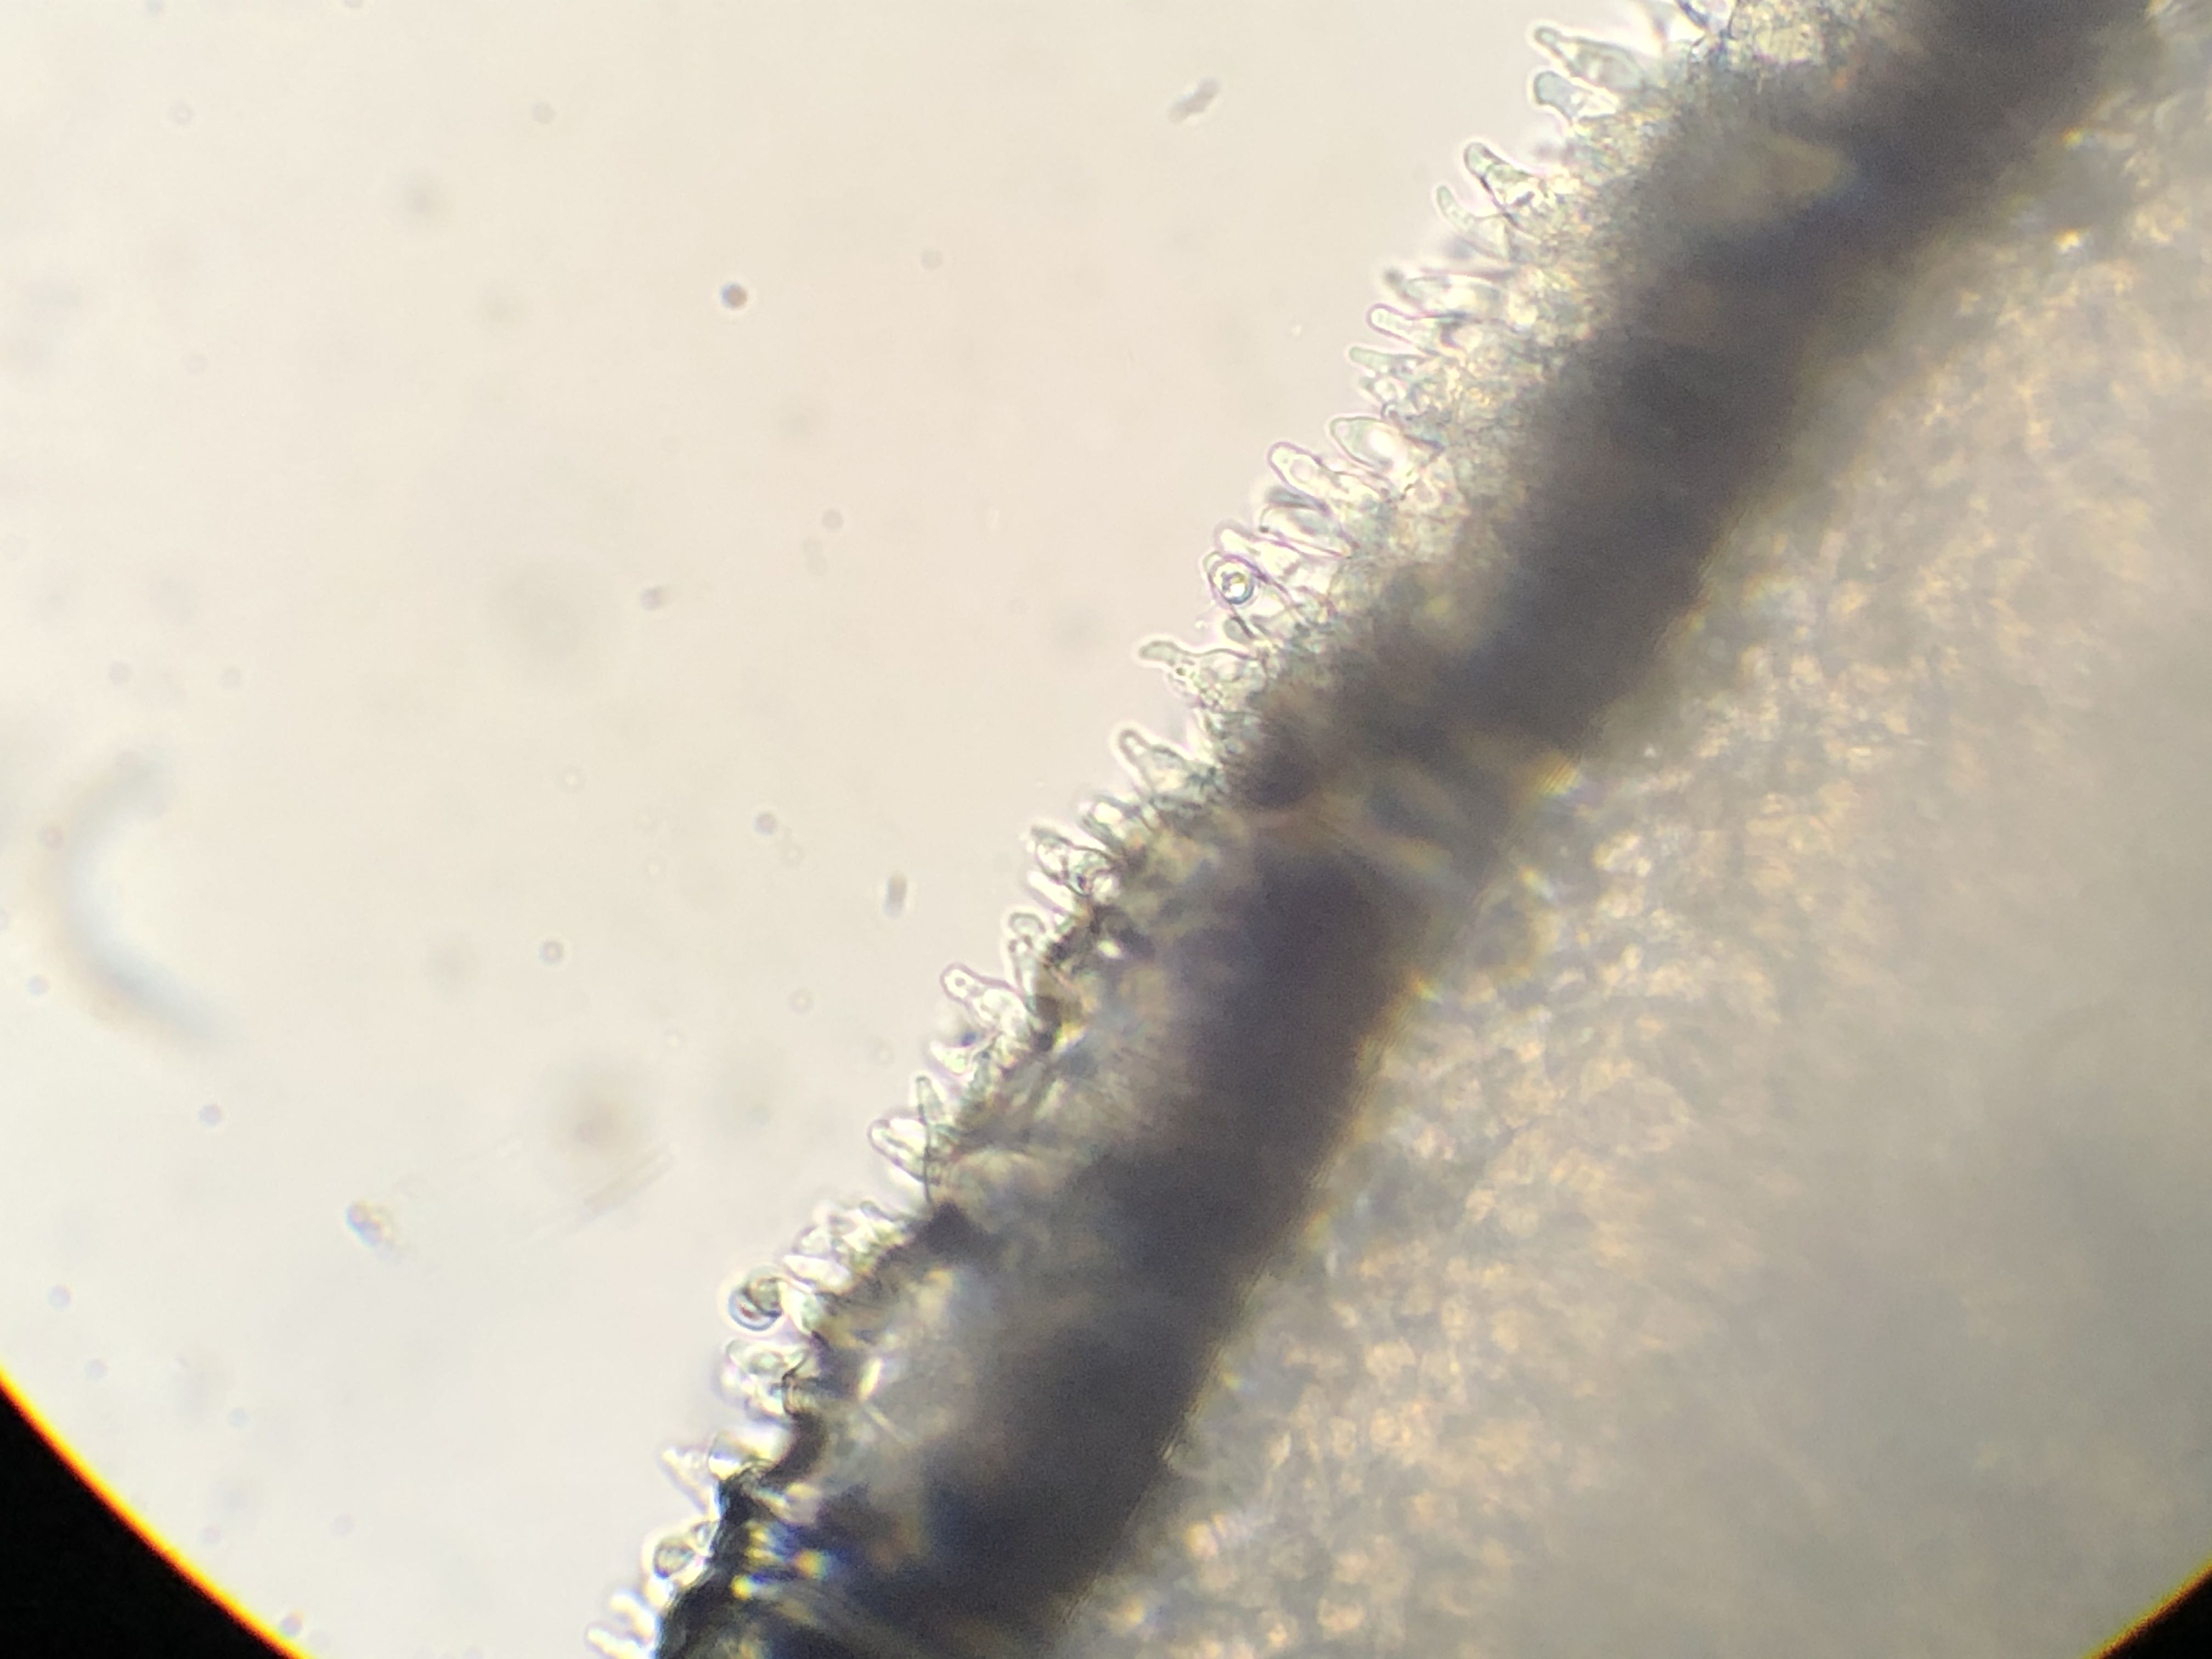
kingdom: Fungi
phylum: Basidiomycota
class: Agaricomycetes
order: Agaricales
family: Mycenaceae
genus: Mycena
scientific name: Mycena vitilis
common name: blankstokket huesvamp
